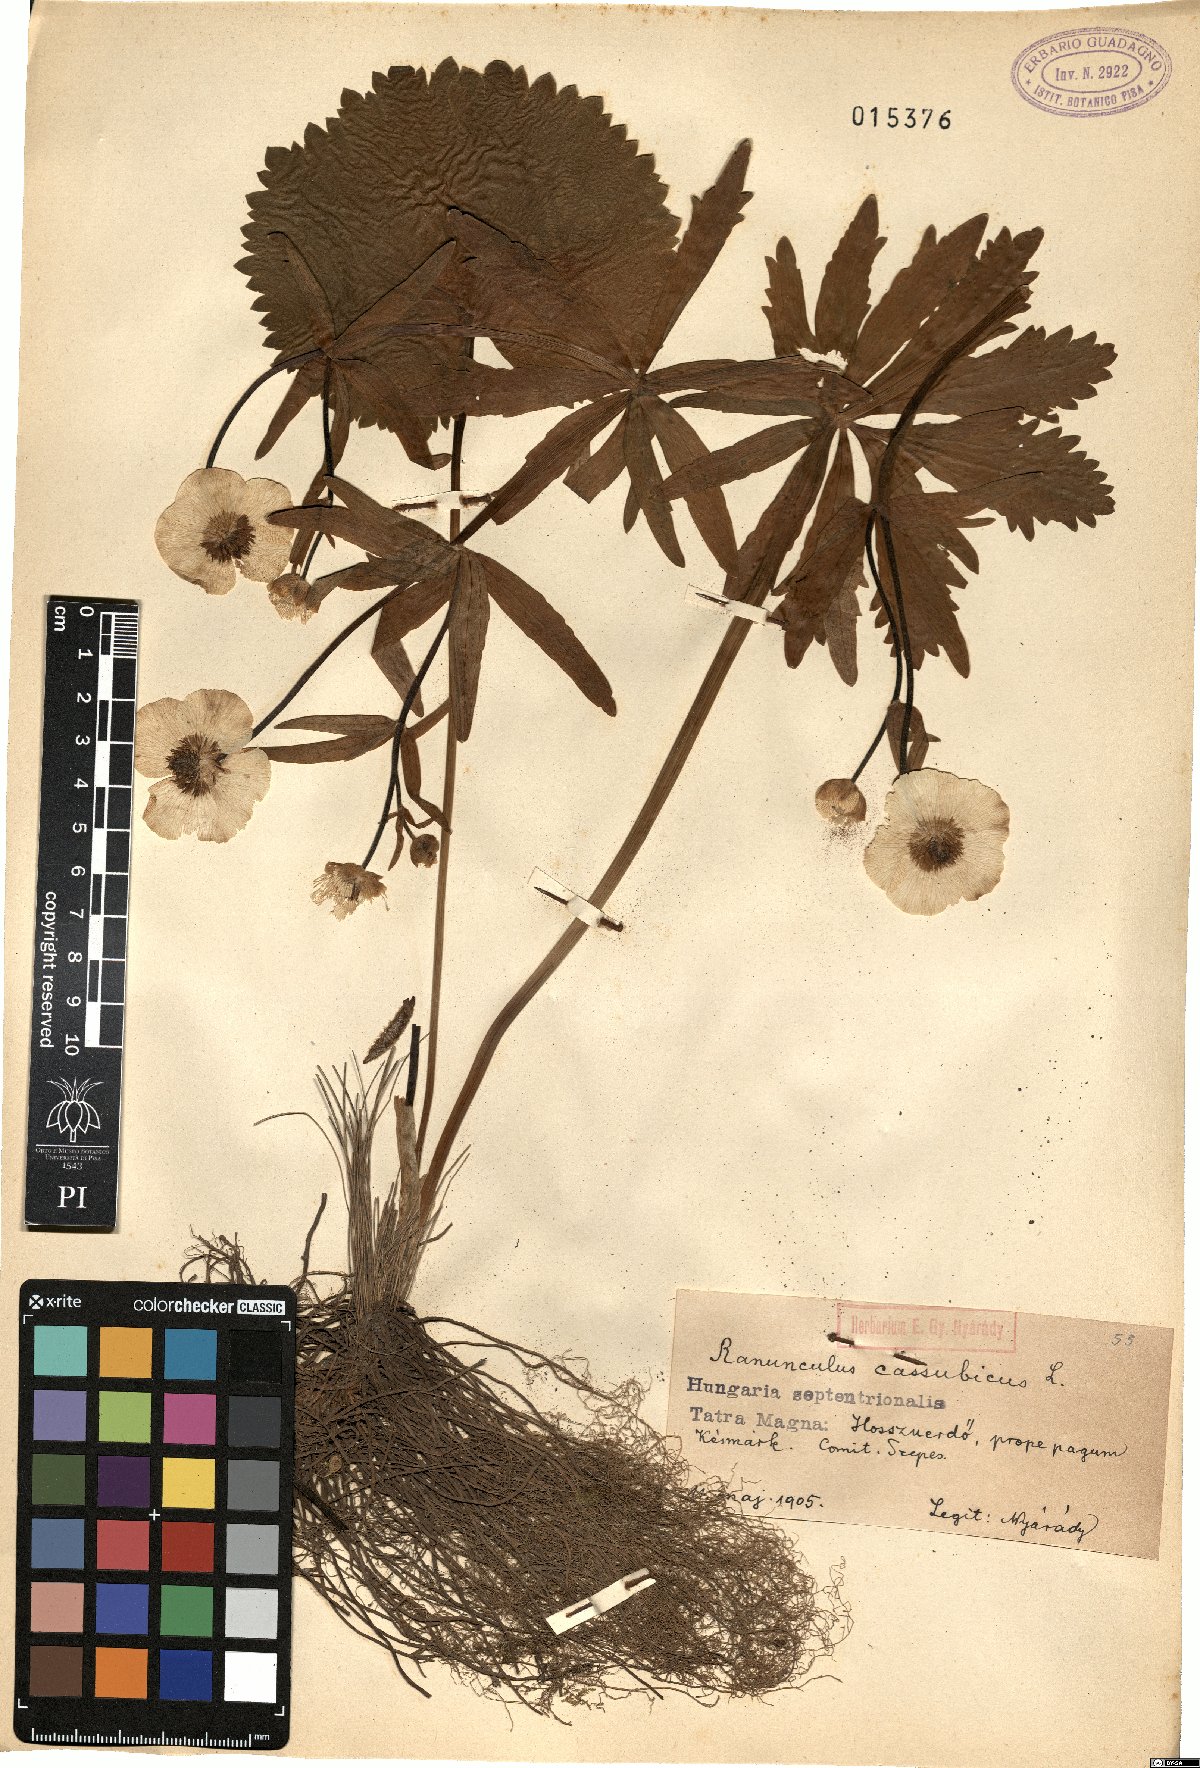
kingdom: Plantae
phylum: Tracheophyta
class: Magnoliopsida
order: Ranunculales
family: Ranunculaceae
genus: Ranunculus
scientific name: Ranunculus cassubicus
